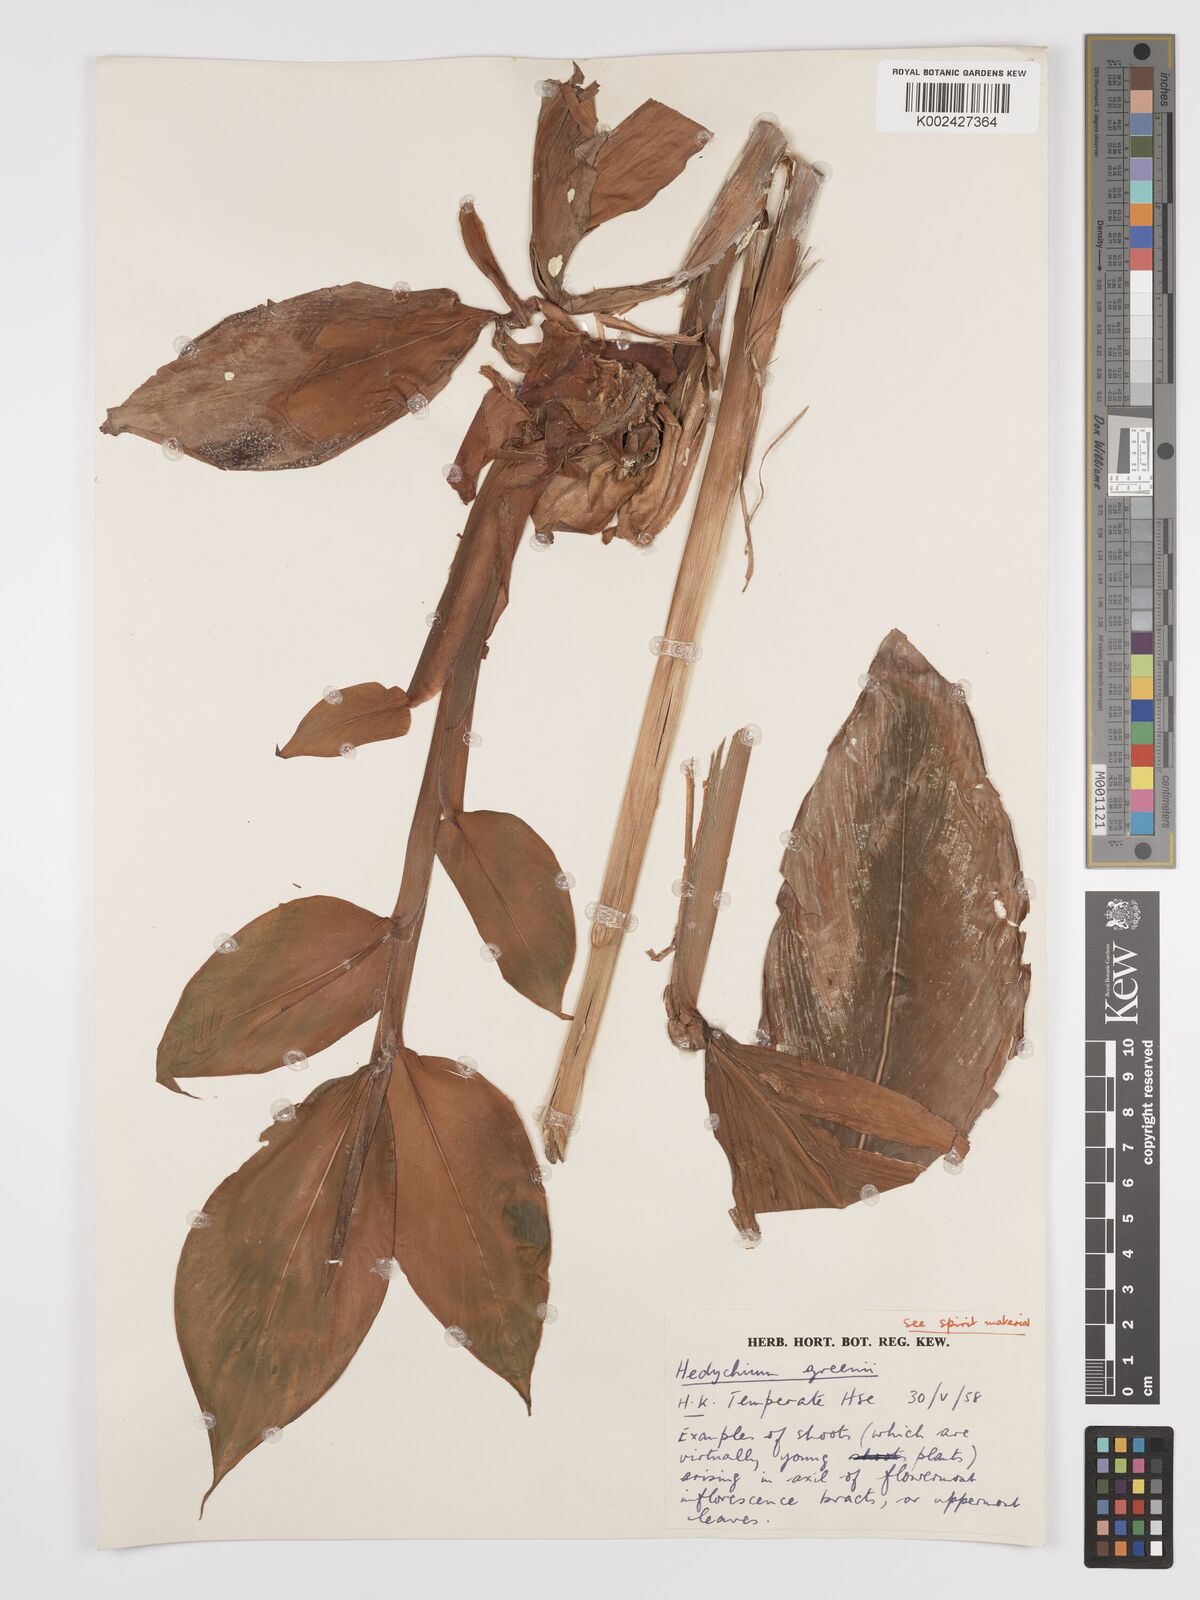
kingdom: Plantae
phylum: Tracheophyta
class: Liliopsida
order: Zingiberales
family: Zingiberaceae
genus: Hedychium
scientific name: Hedychium greenii
